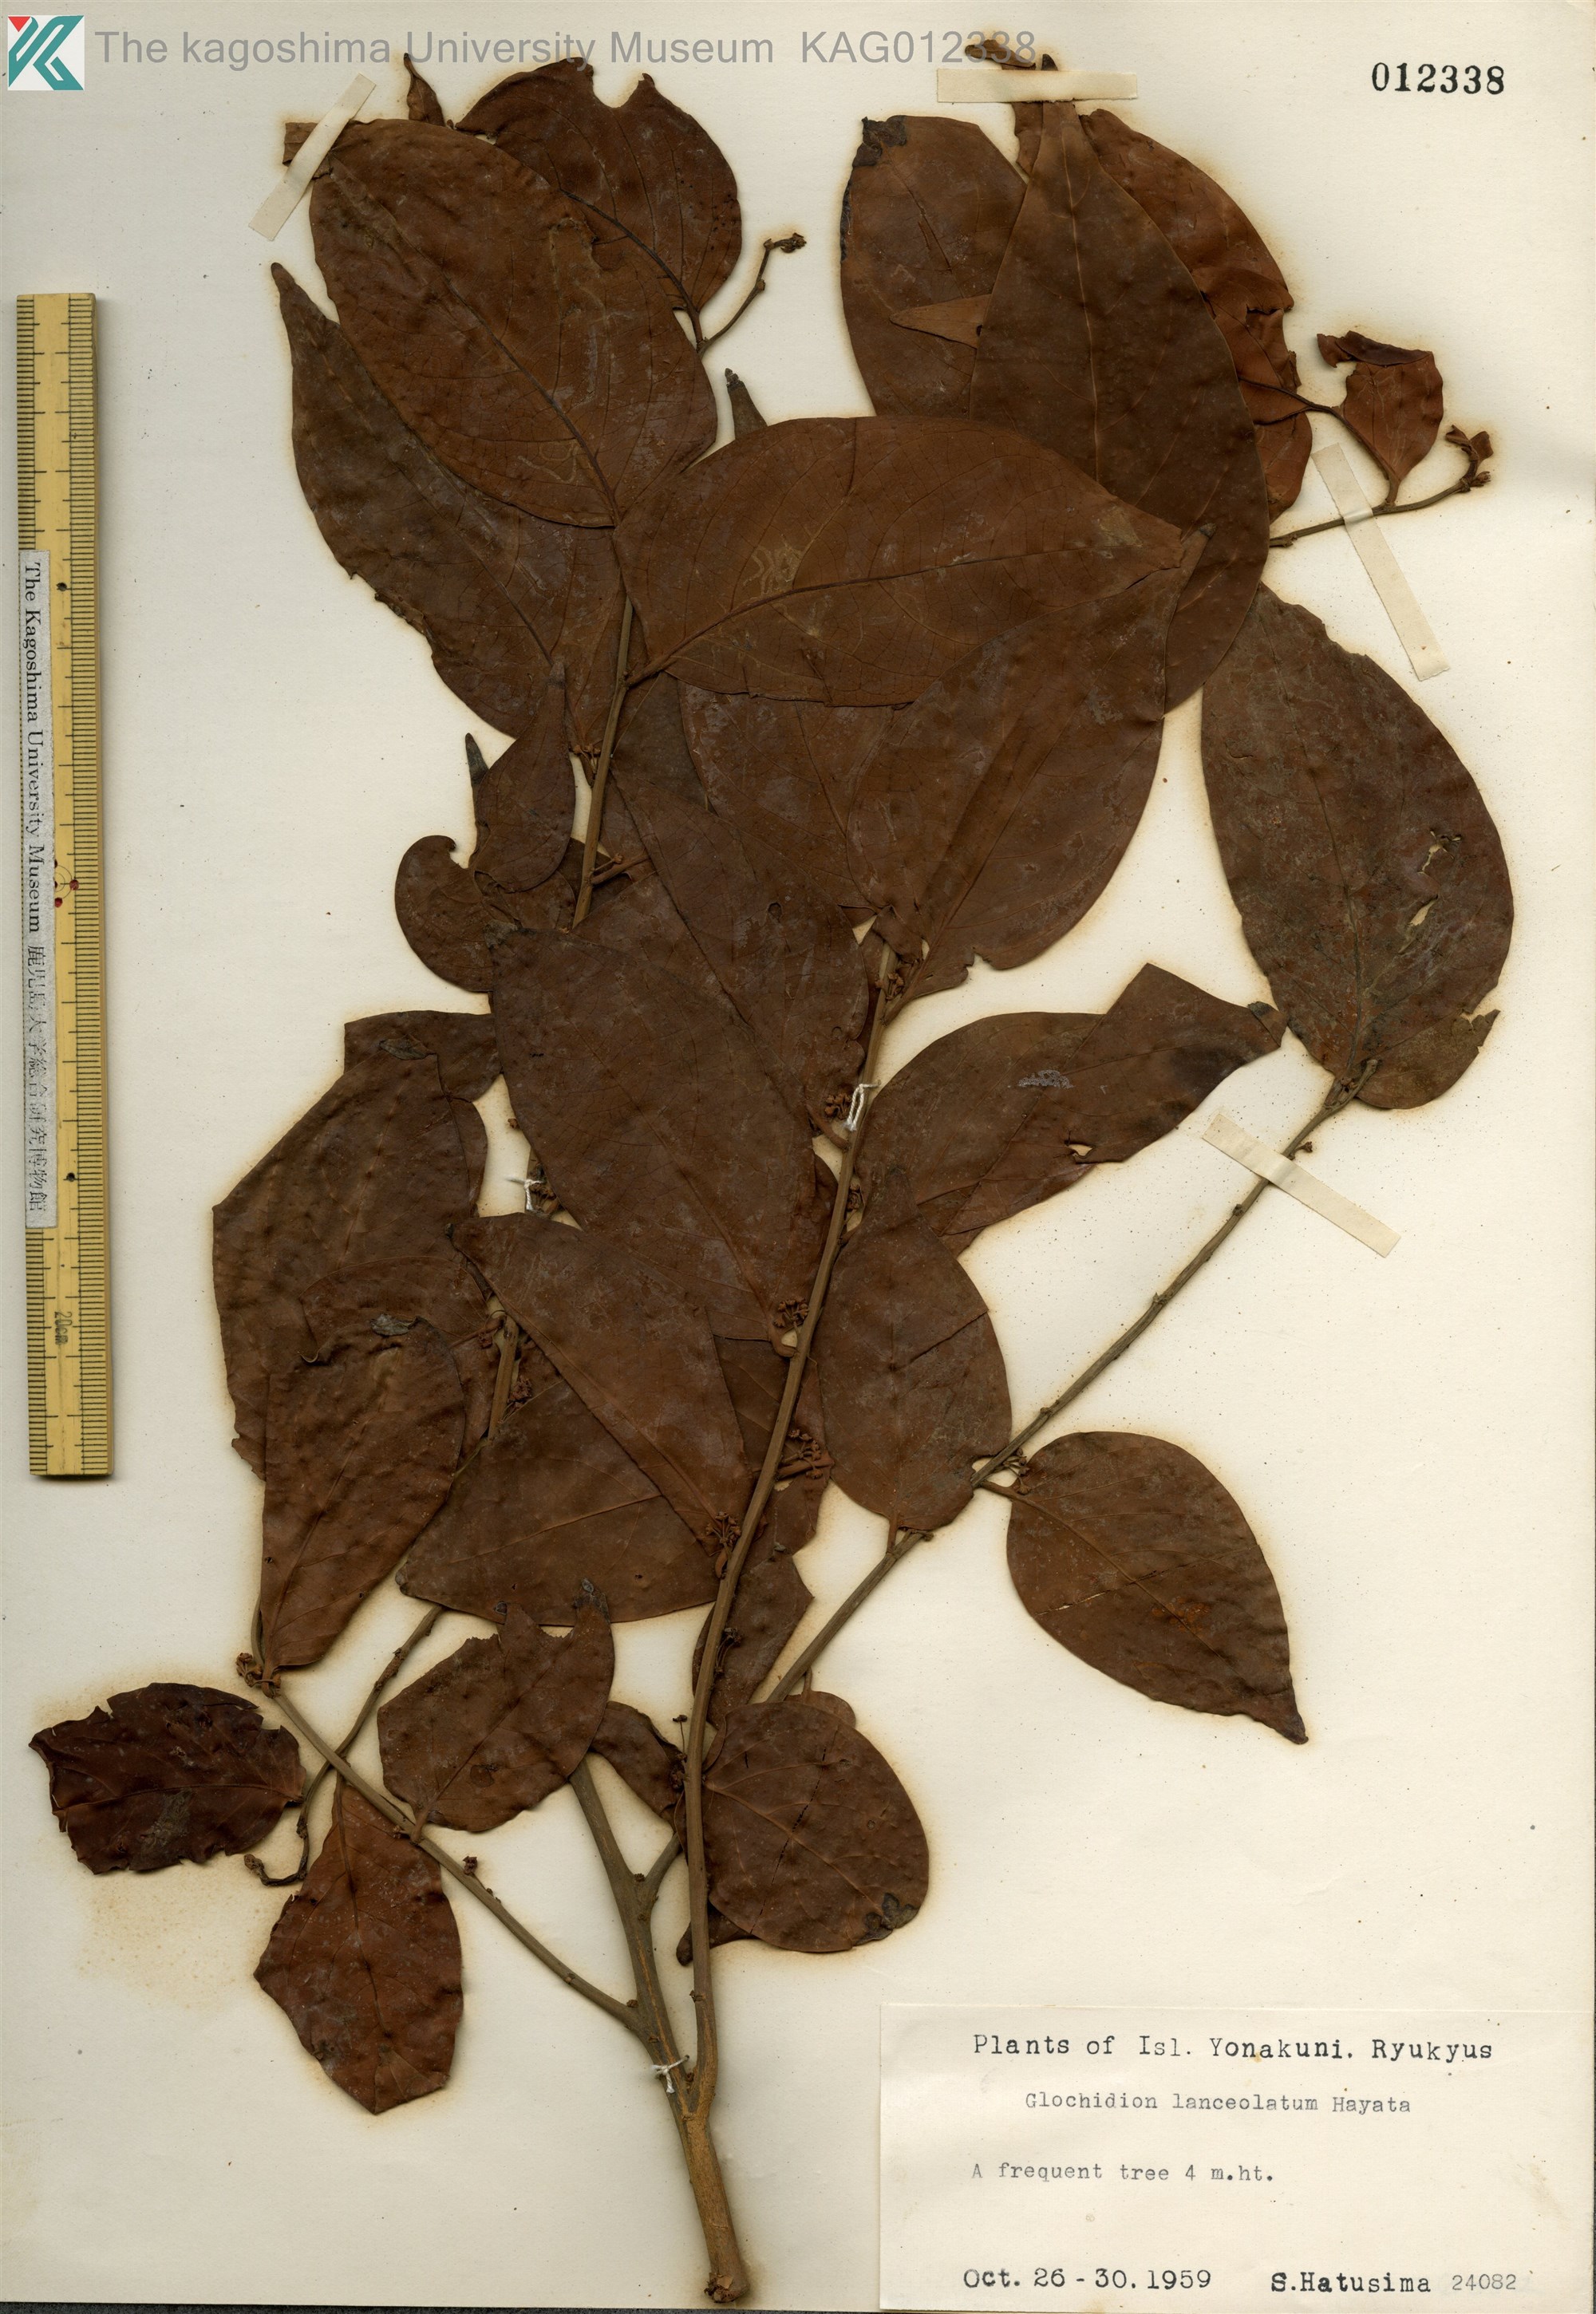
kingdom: Plantae
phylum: Tracheophyta
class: Magnoliopsida
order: Malpighiales
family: Phyllanthaceae
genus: Glochidion
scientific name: Glochidion lanceolatum
